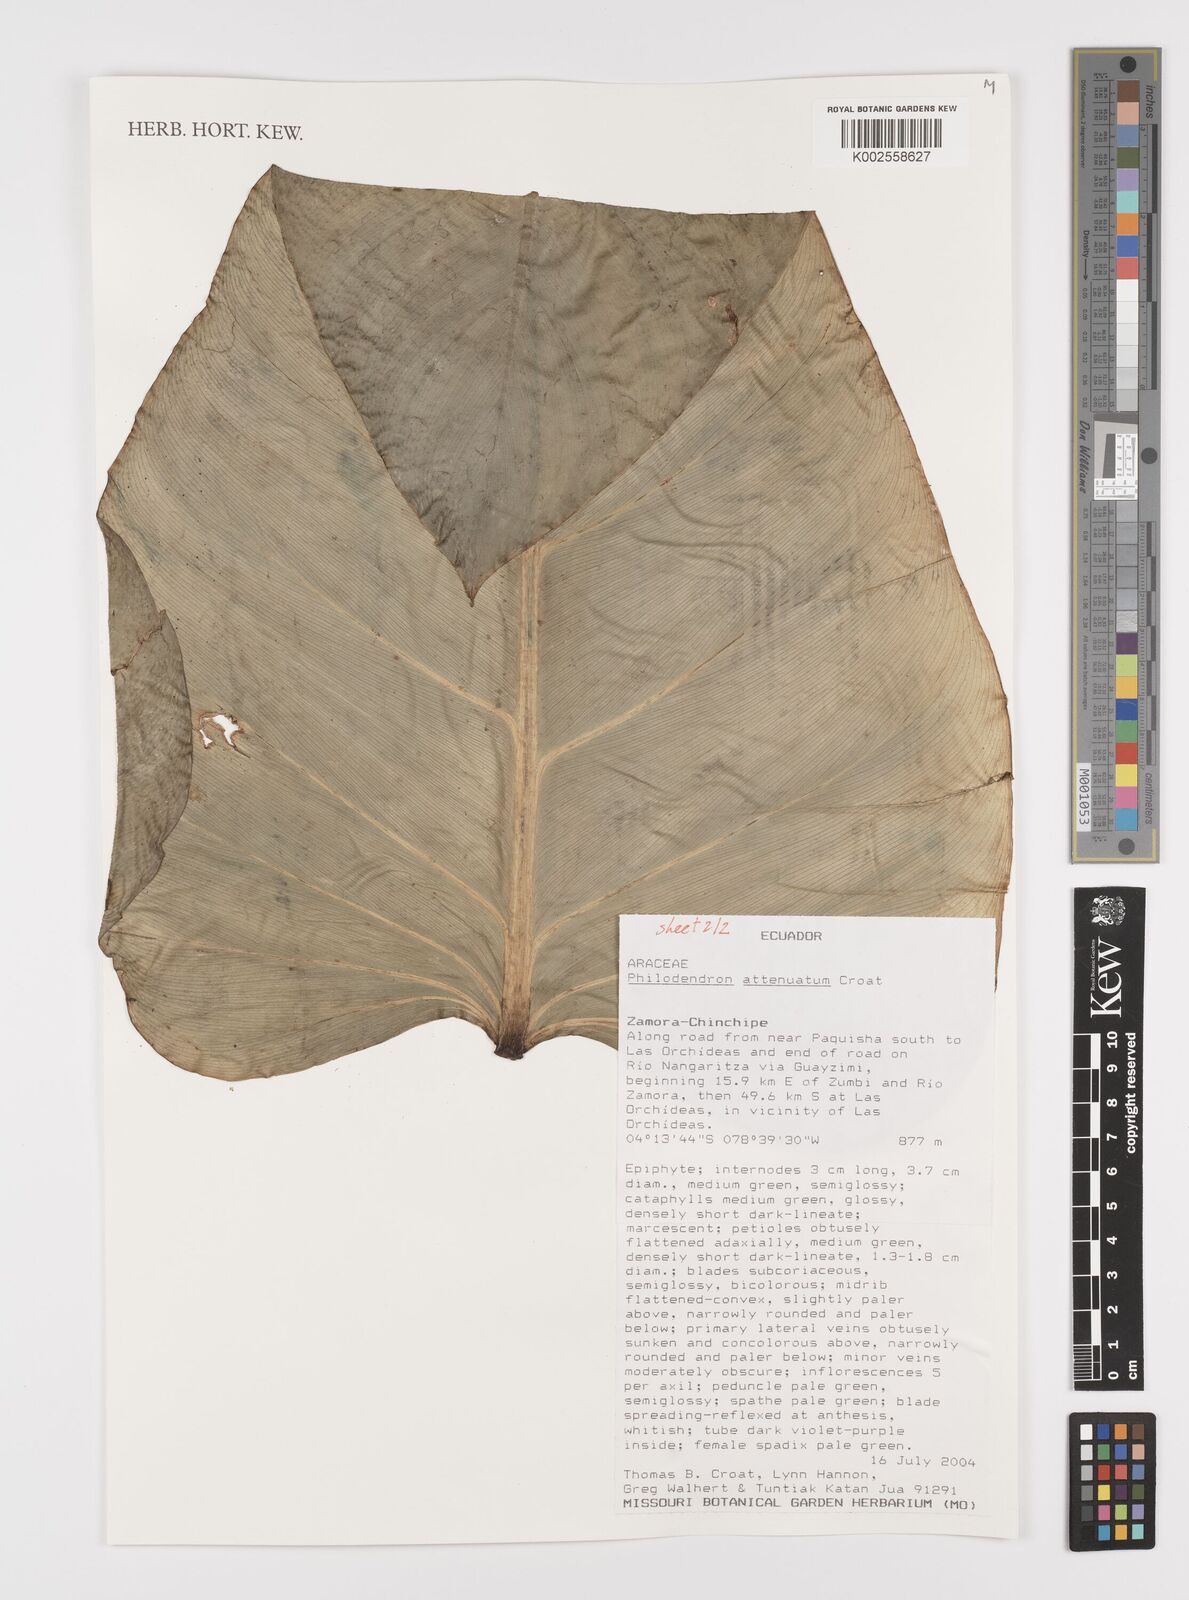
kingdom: Plantae
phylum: Tracheophyta
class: Liliopsida
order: Alismatales
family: Araceae
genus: Philodendron
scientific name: Philodendron attenuatum
